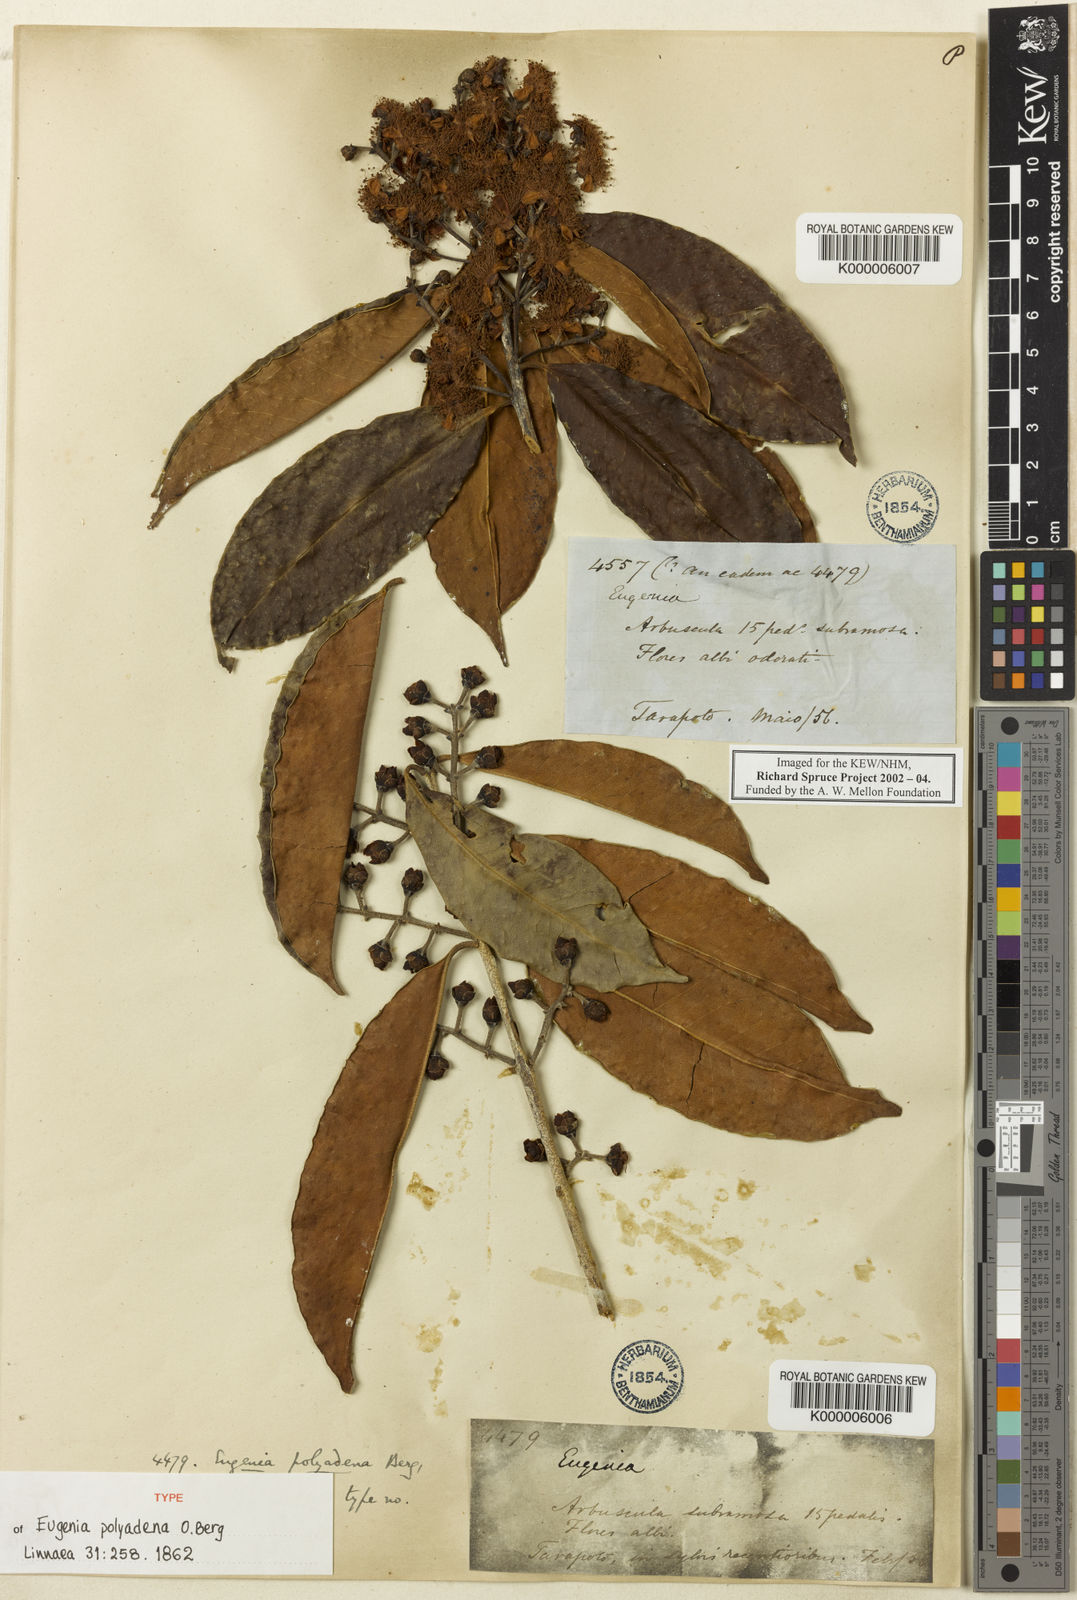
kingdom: Plantae
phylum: Tracheophyta
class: Magnoliopsida
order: Myrtales
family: Myrtaceae
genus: Eugenia
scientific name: Eugenia polyadena
